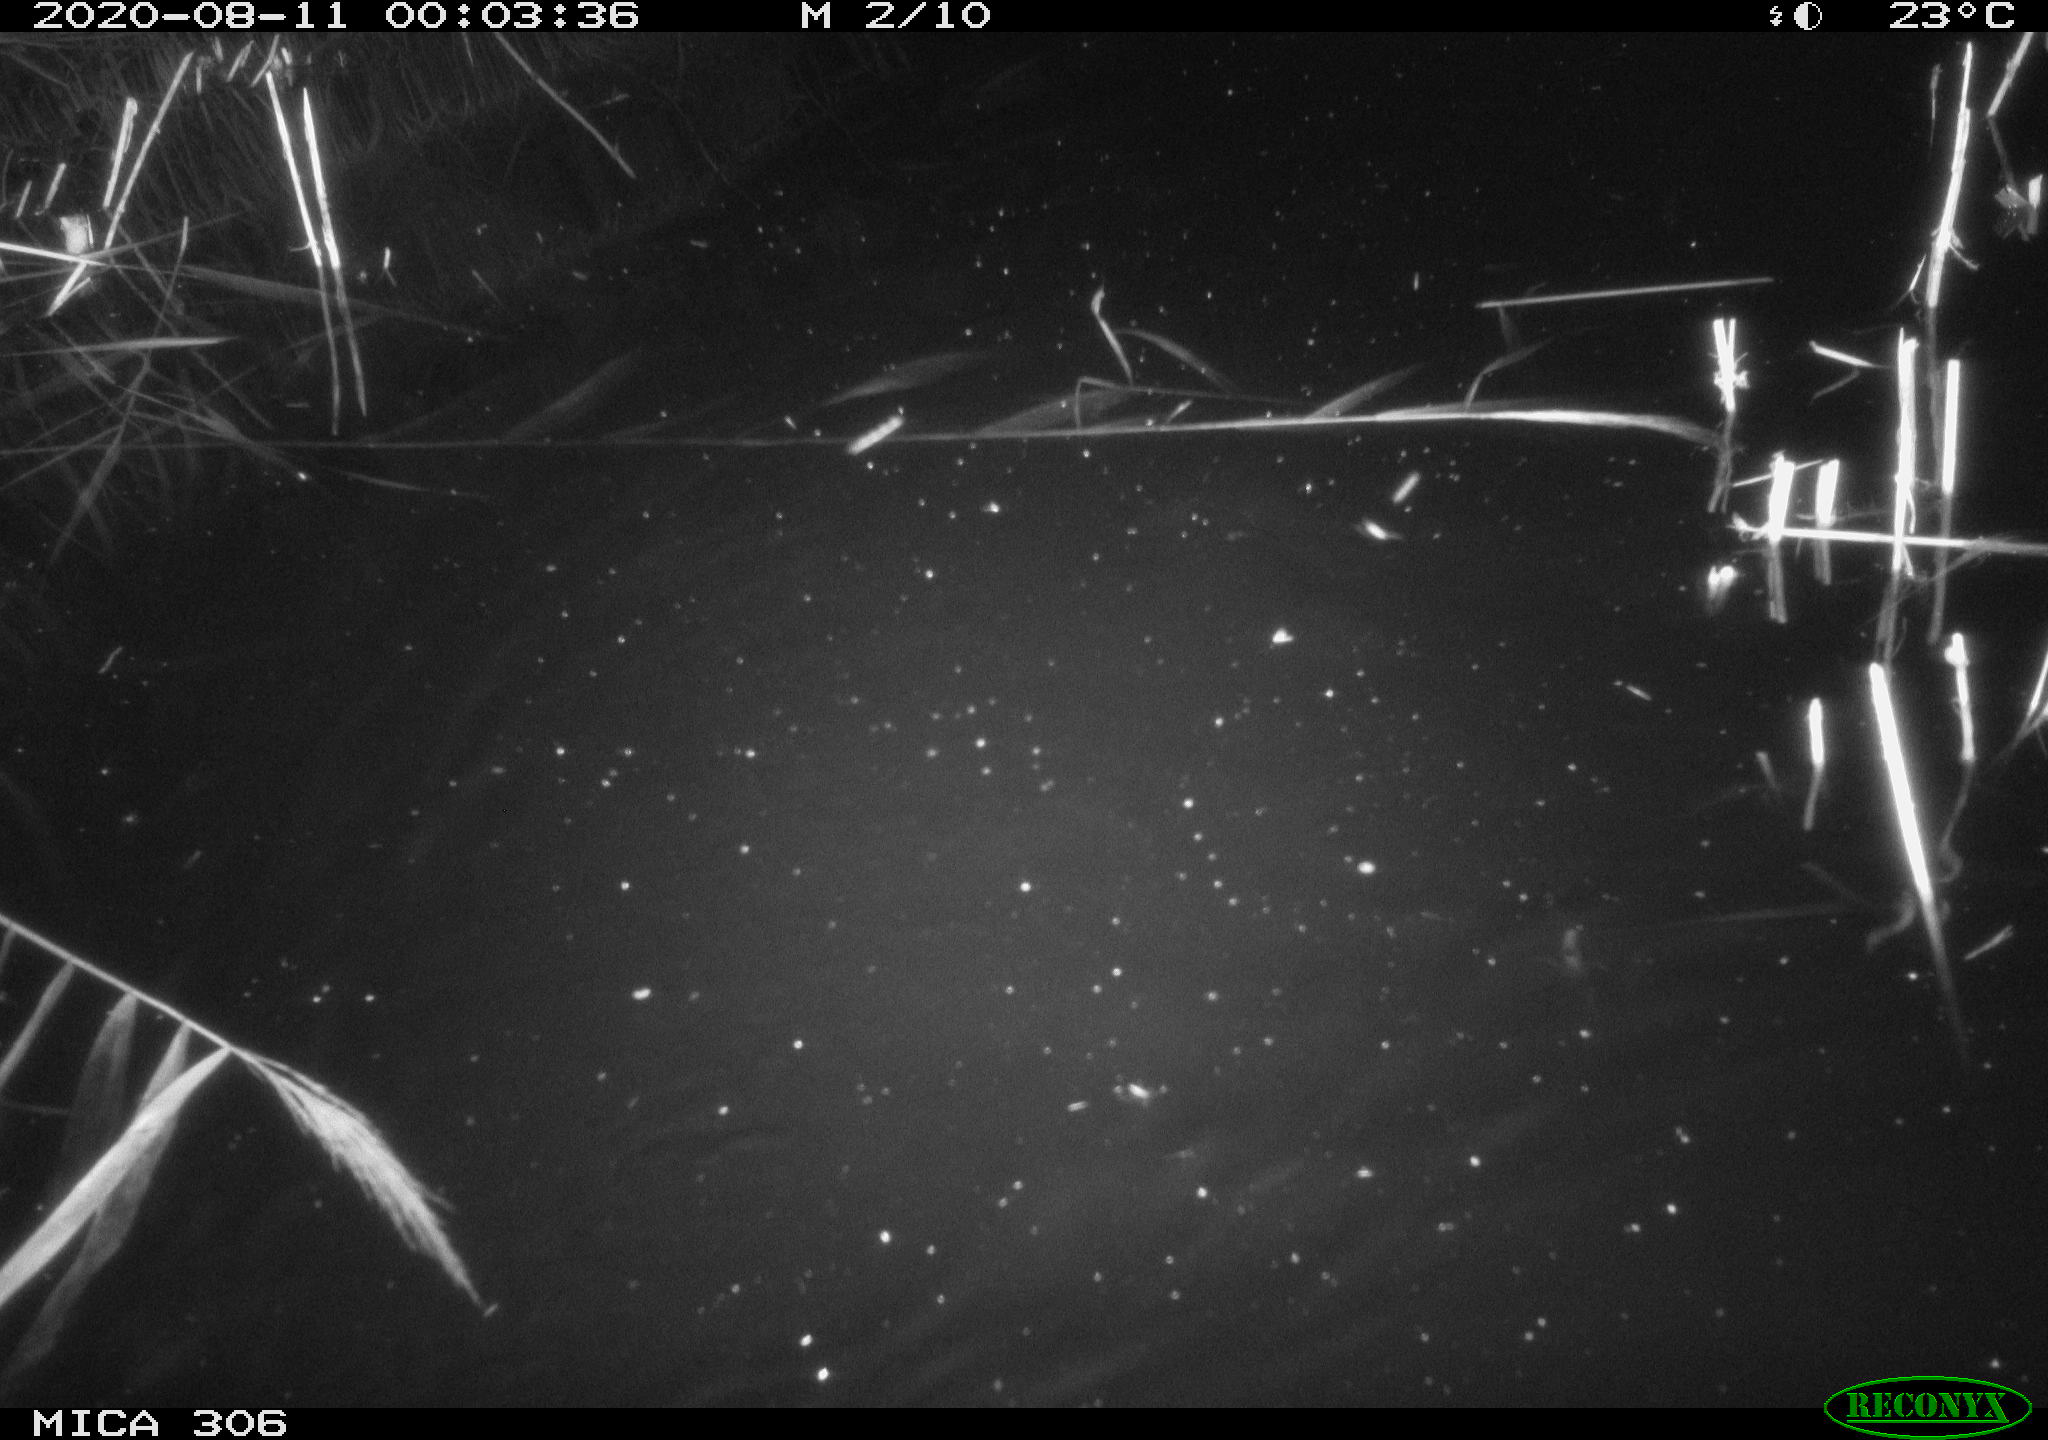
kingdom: Animalia
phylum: Chordata
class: Mammalia
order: Rodentia
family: Muridae
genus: Rattus
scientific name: Rattus norvegicus
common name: Brown rat
